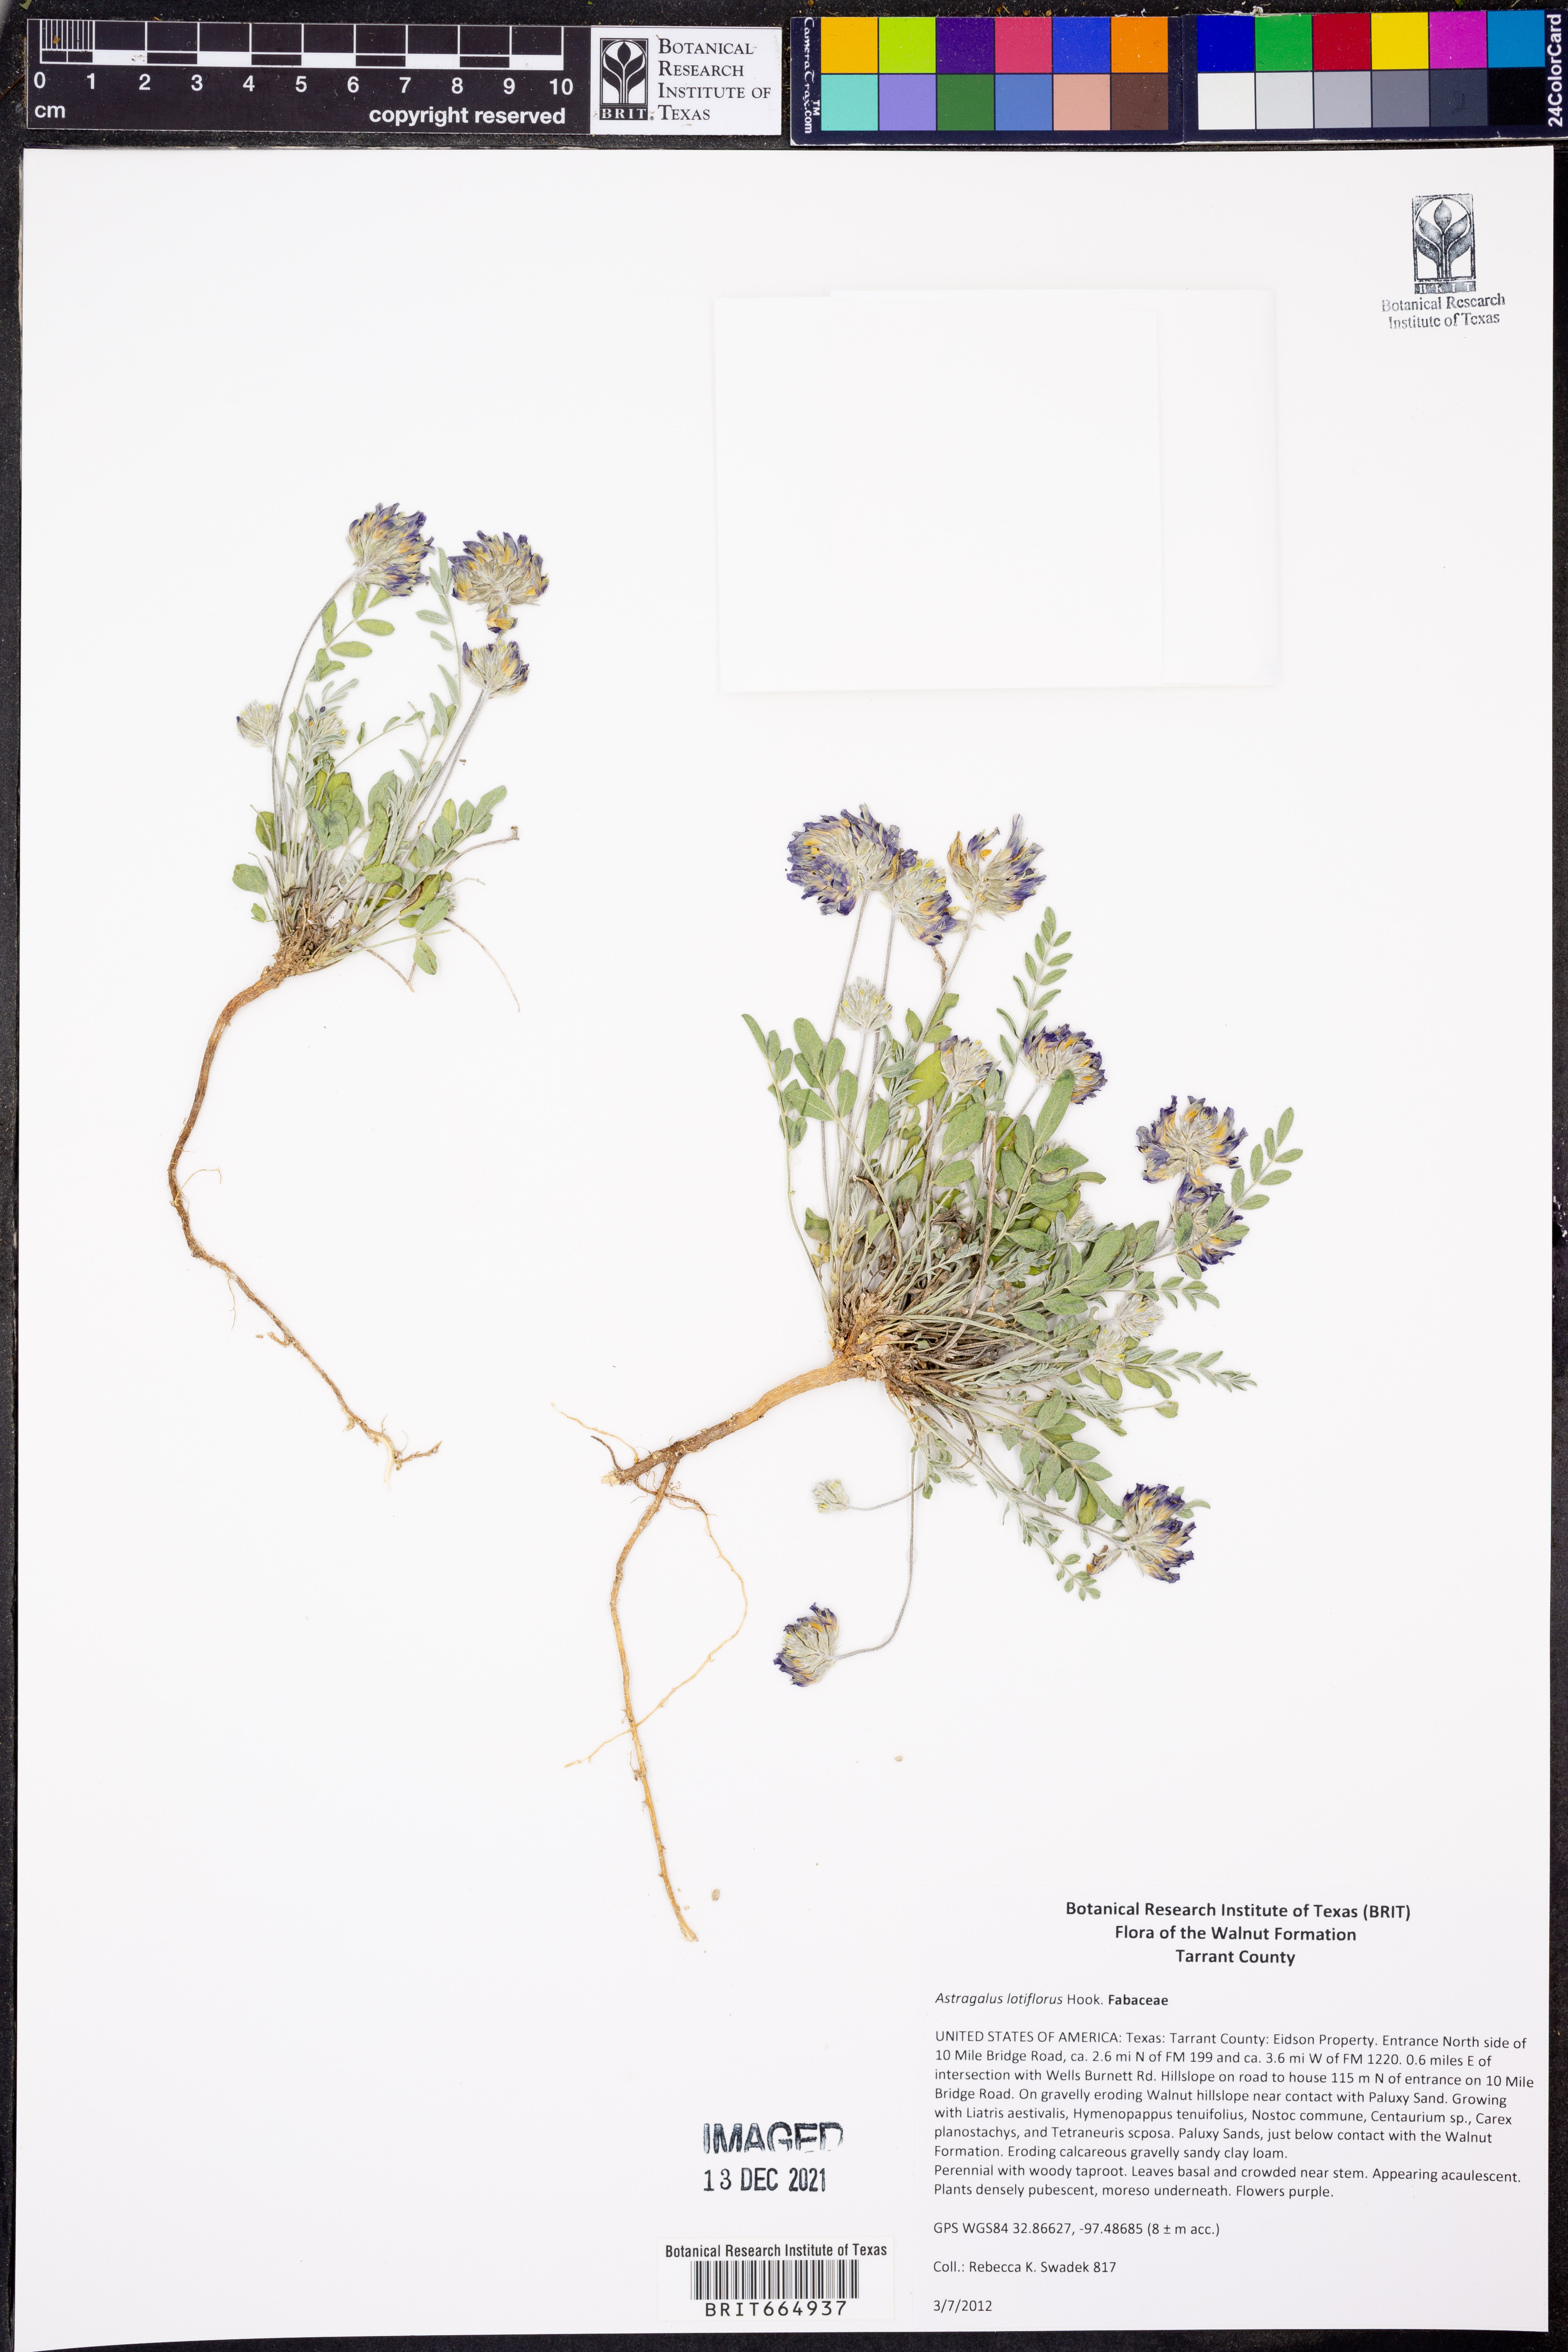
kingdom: Plantae
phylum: Tracheophyta
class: Magnoliopsida
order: Fabales
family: Fabaceae
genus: Astragalus
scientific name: Astragalus lotiflorus
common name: Lotus milk-vetch
